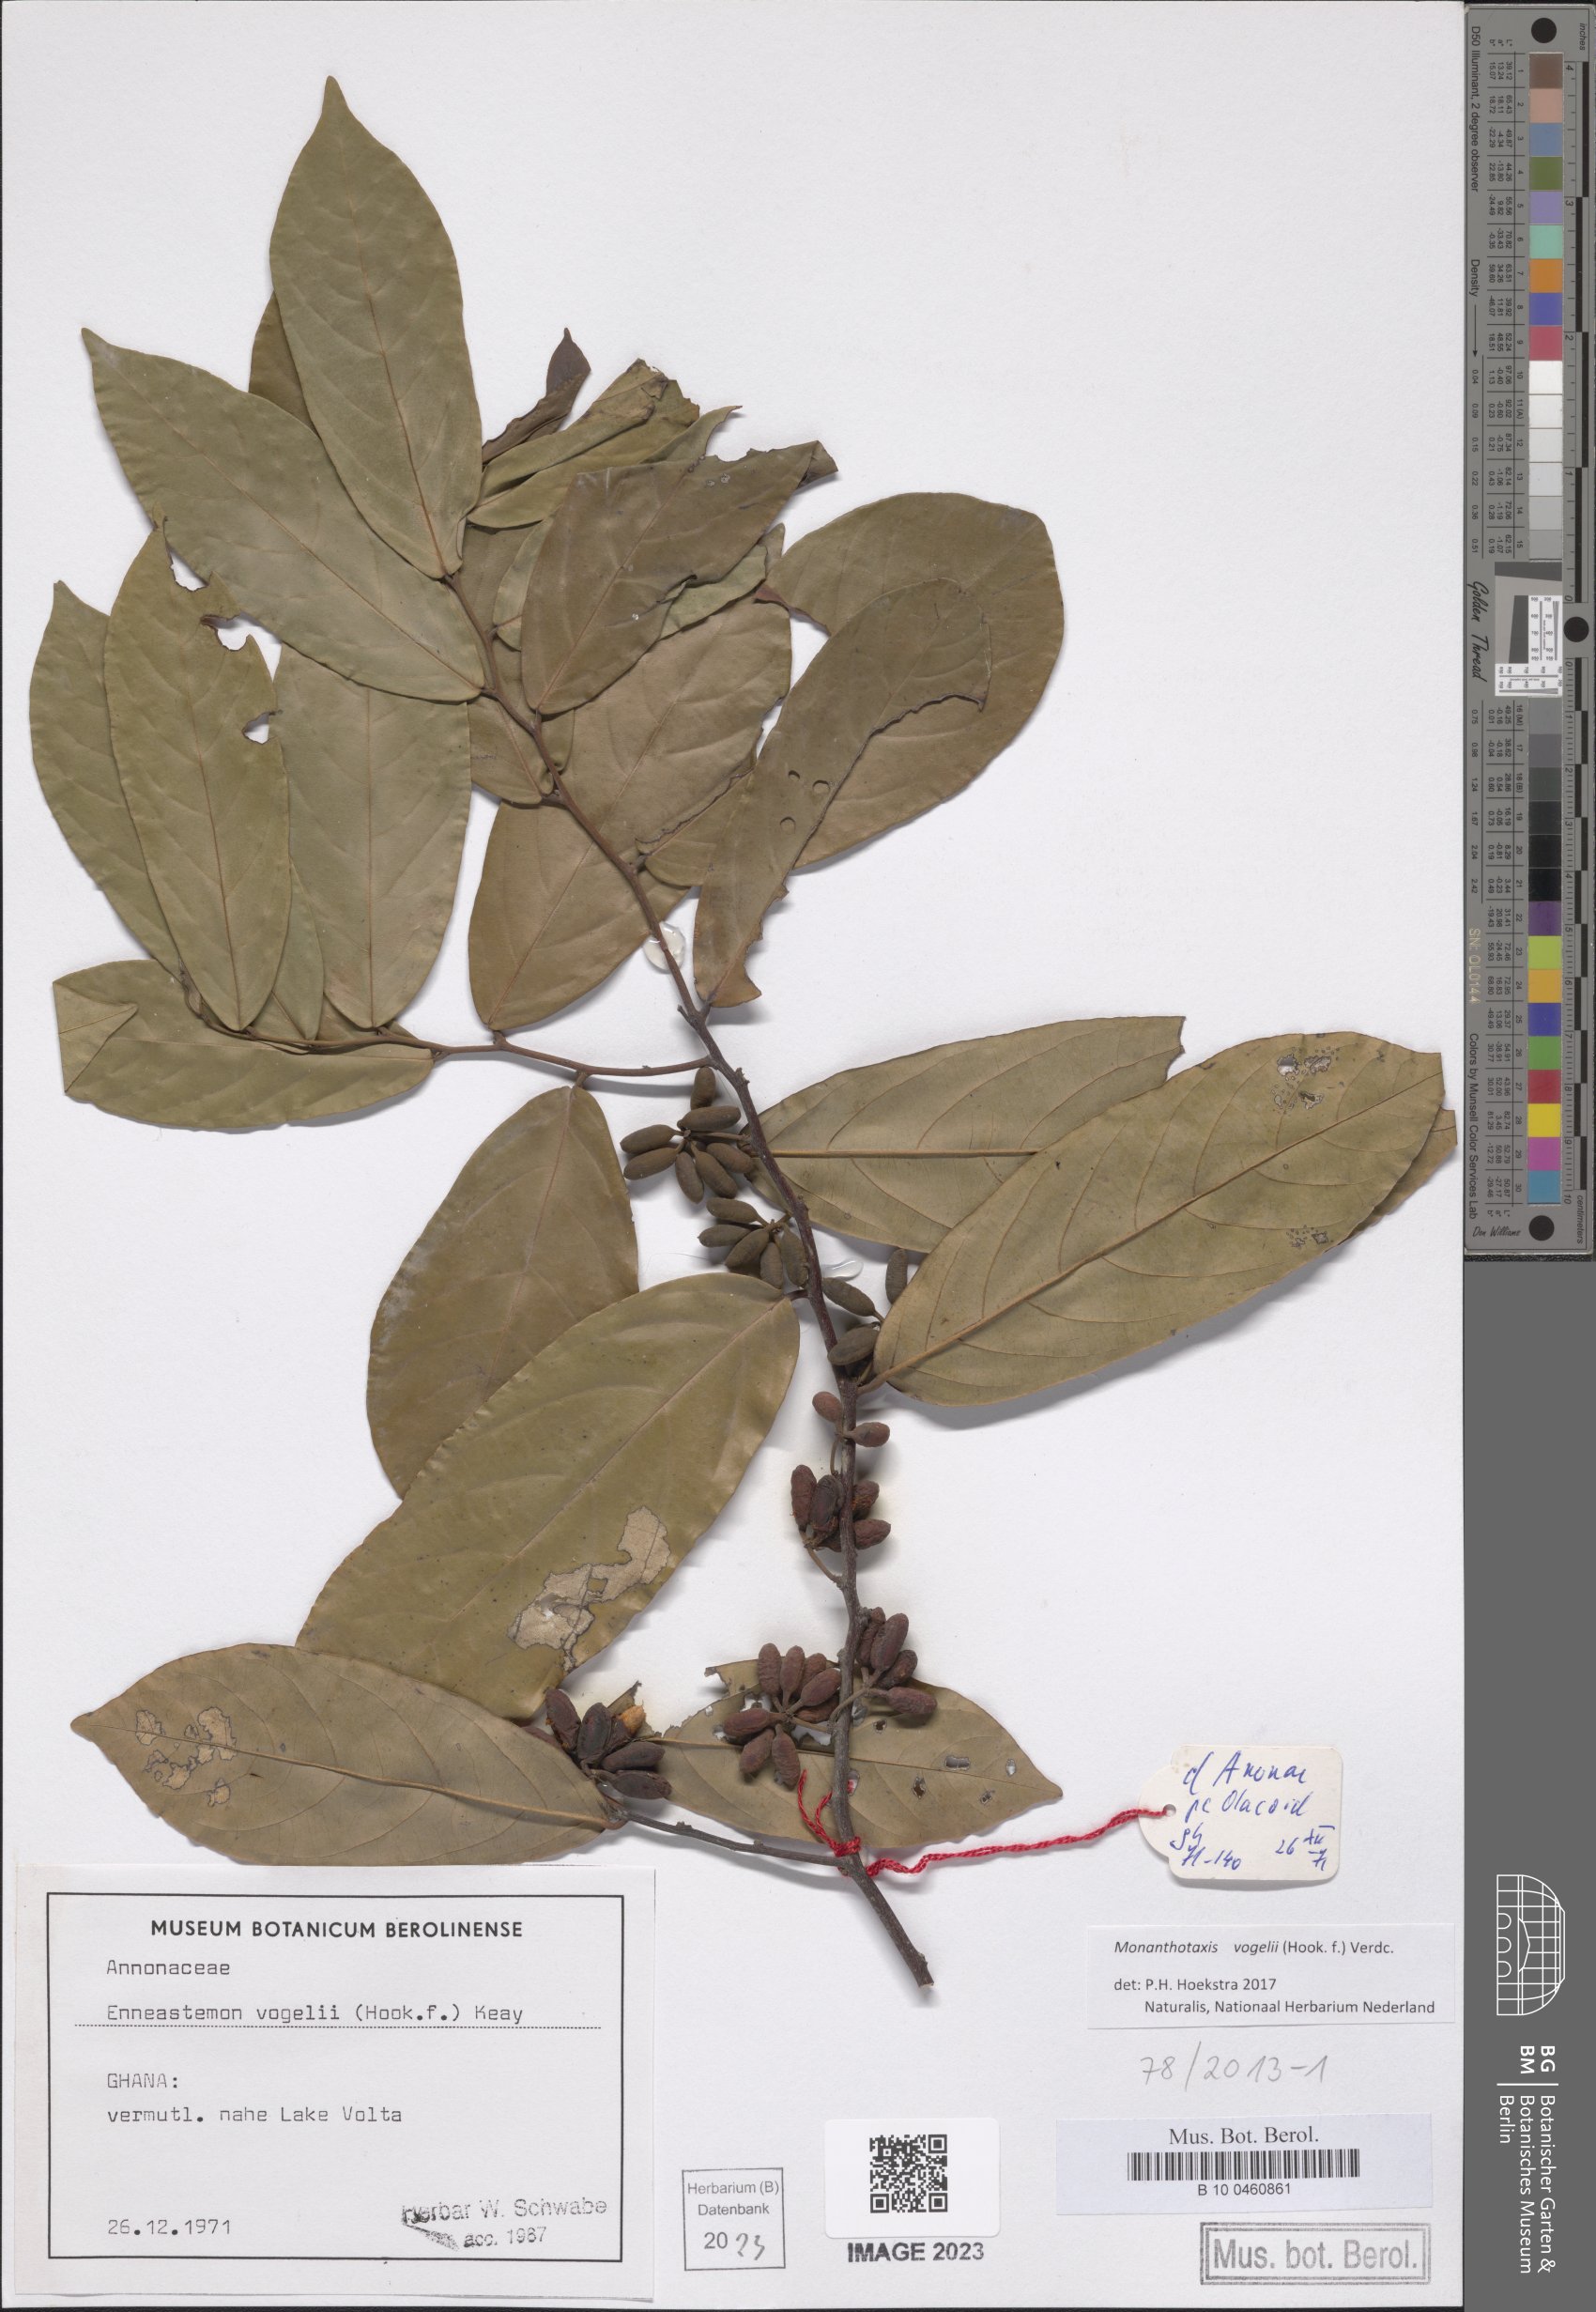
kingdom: Plantae
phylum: Tracheophyta
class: Magnoliopsida
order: Magnoliales
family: Annonaceae
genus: Monanthotaxis
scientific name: Monanthotaxis vogelii
